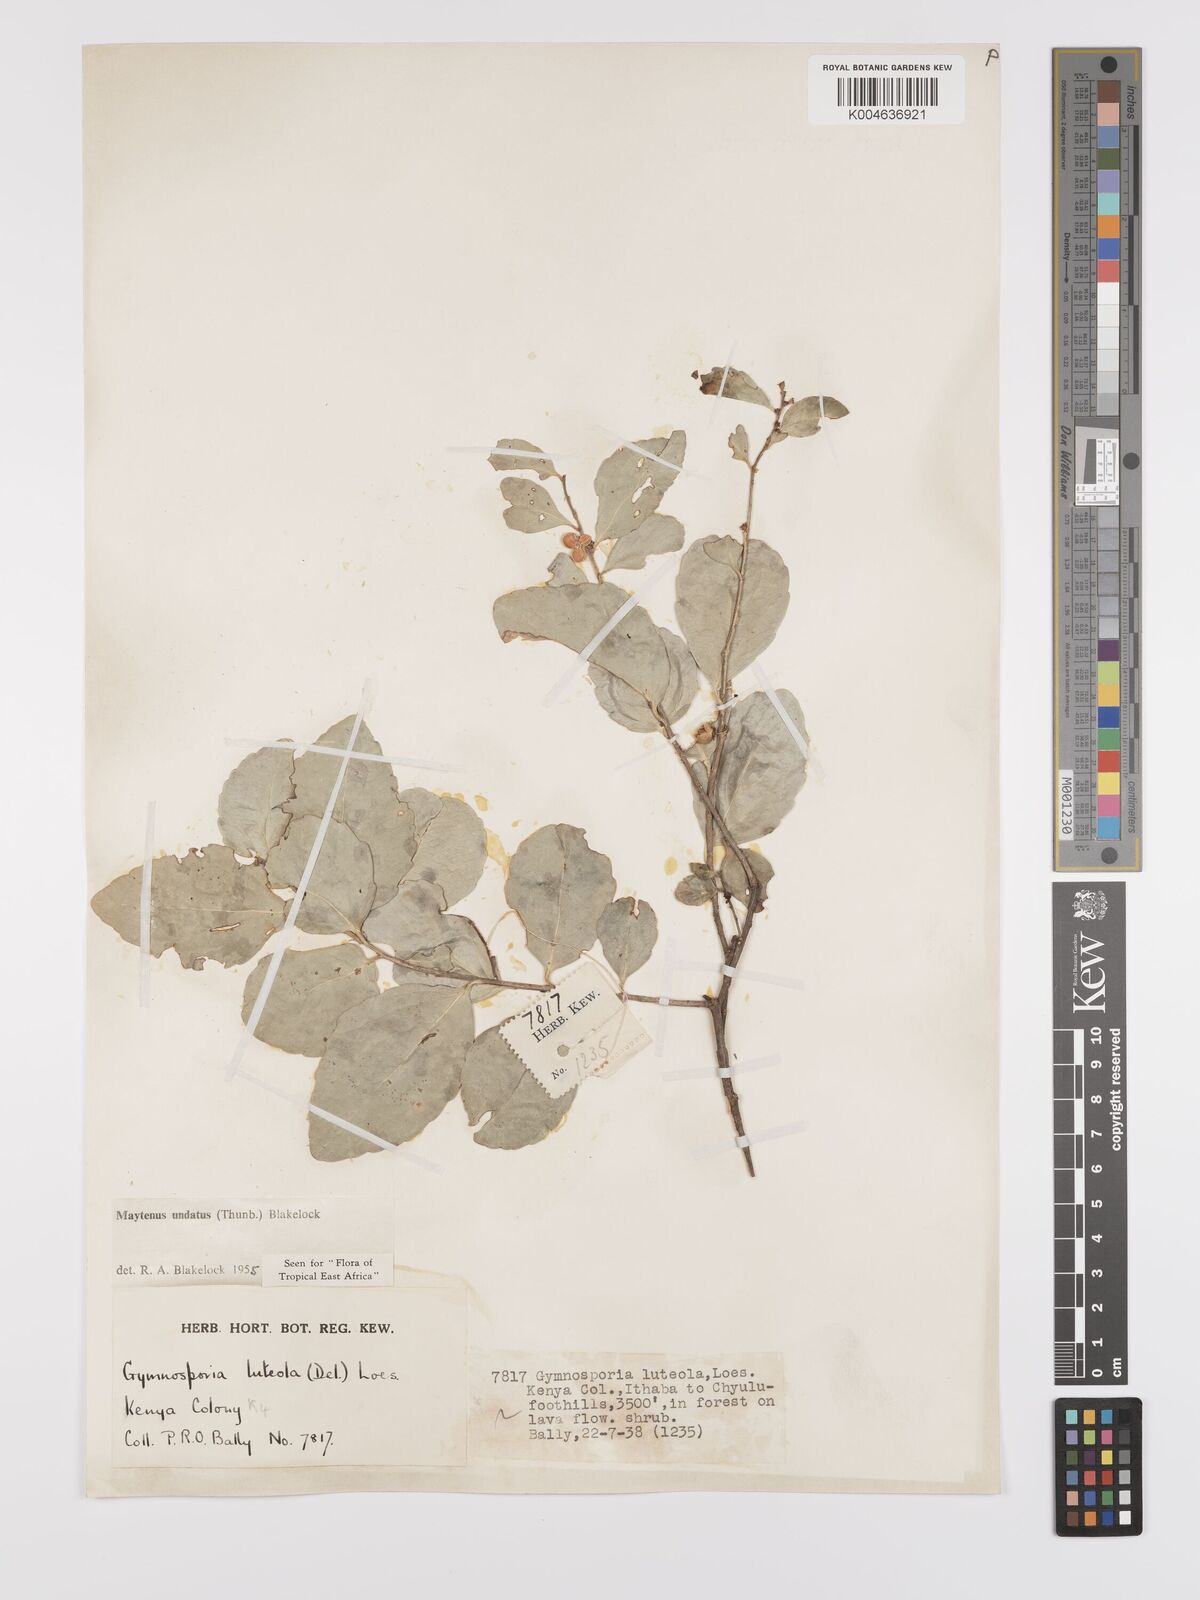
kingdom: Plantae
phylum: Tracheophyta
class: Magnoliopsida
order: Celastrales
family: Celastraceae
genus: Gymnosporia
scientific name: Gymnosporia undata
